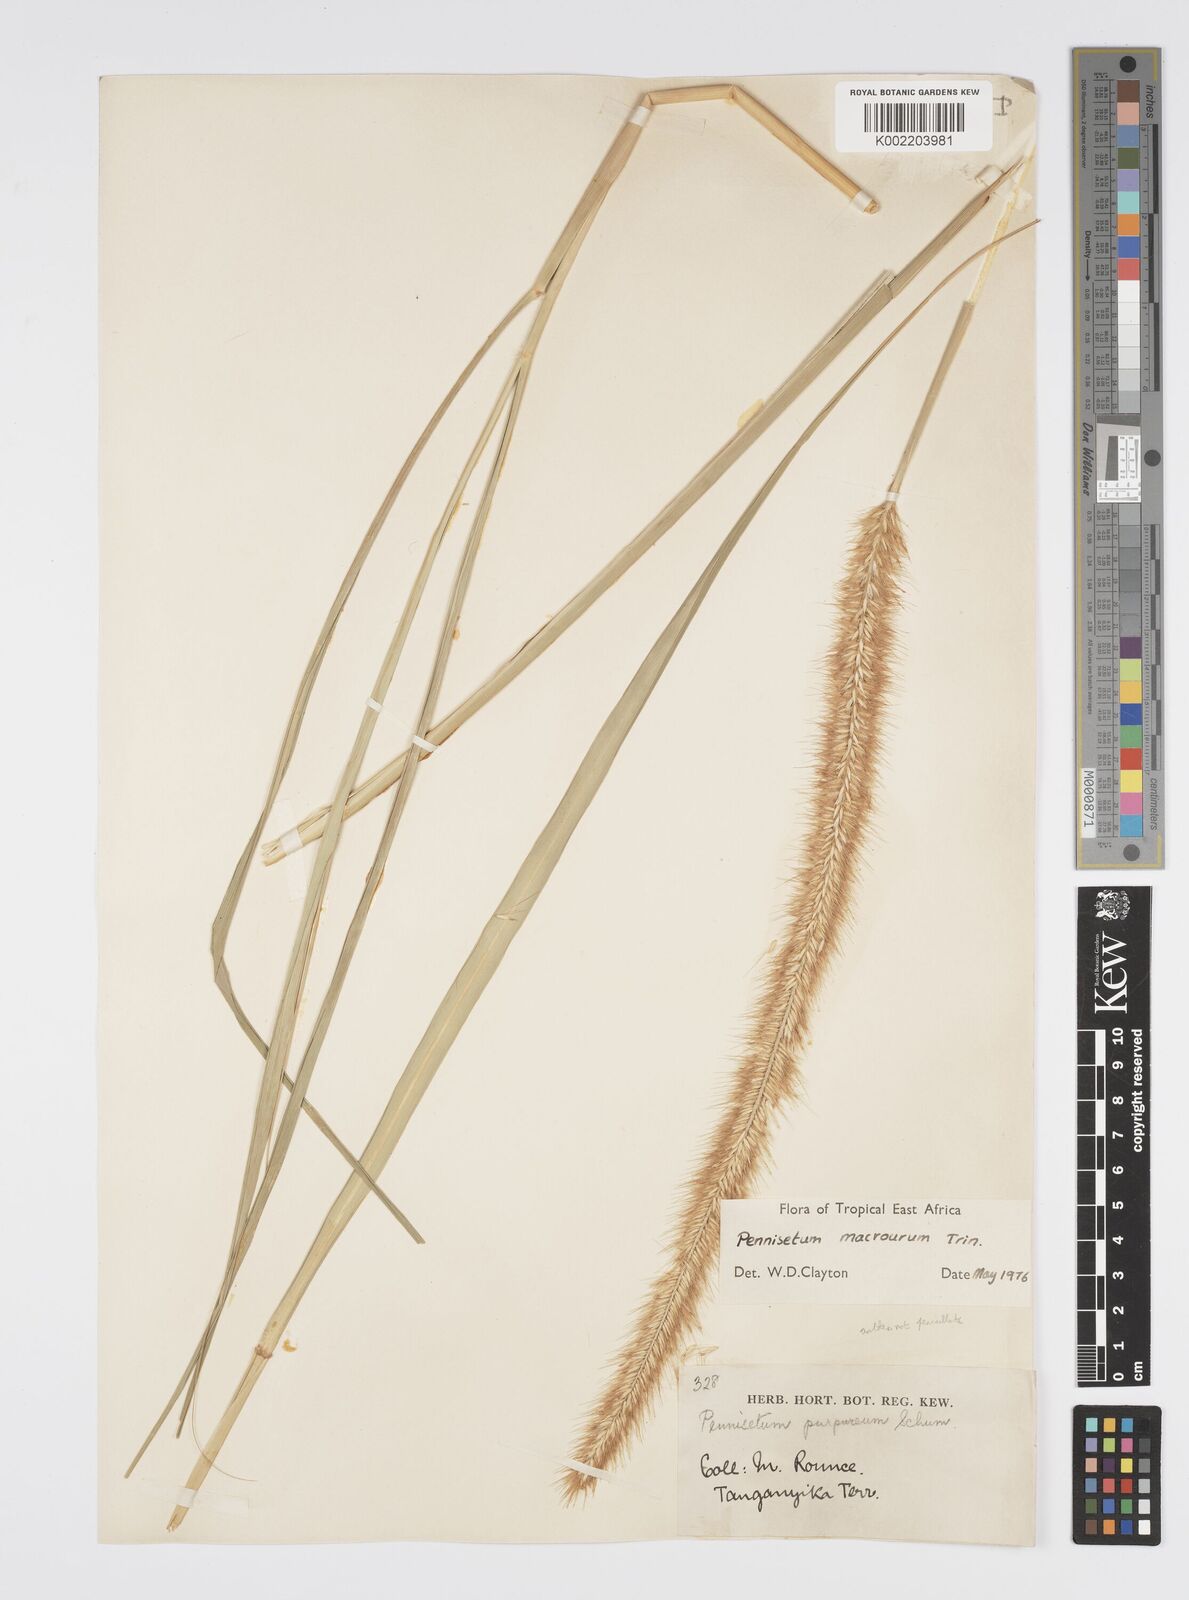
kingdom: Plantae
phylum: Tracheophyta
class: Liliopsida
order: Poales
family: Poaceae
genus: Cenchrus
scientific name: Cenchrus caudatus
